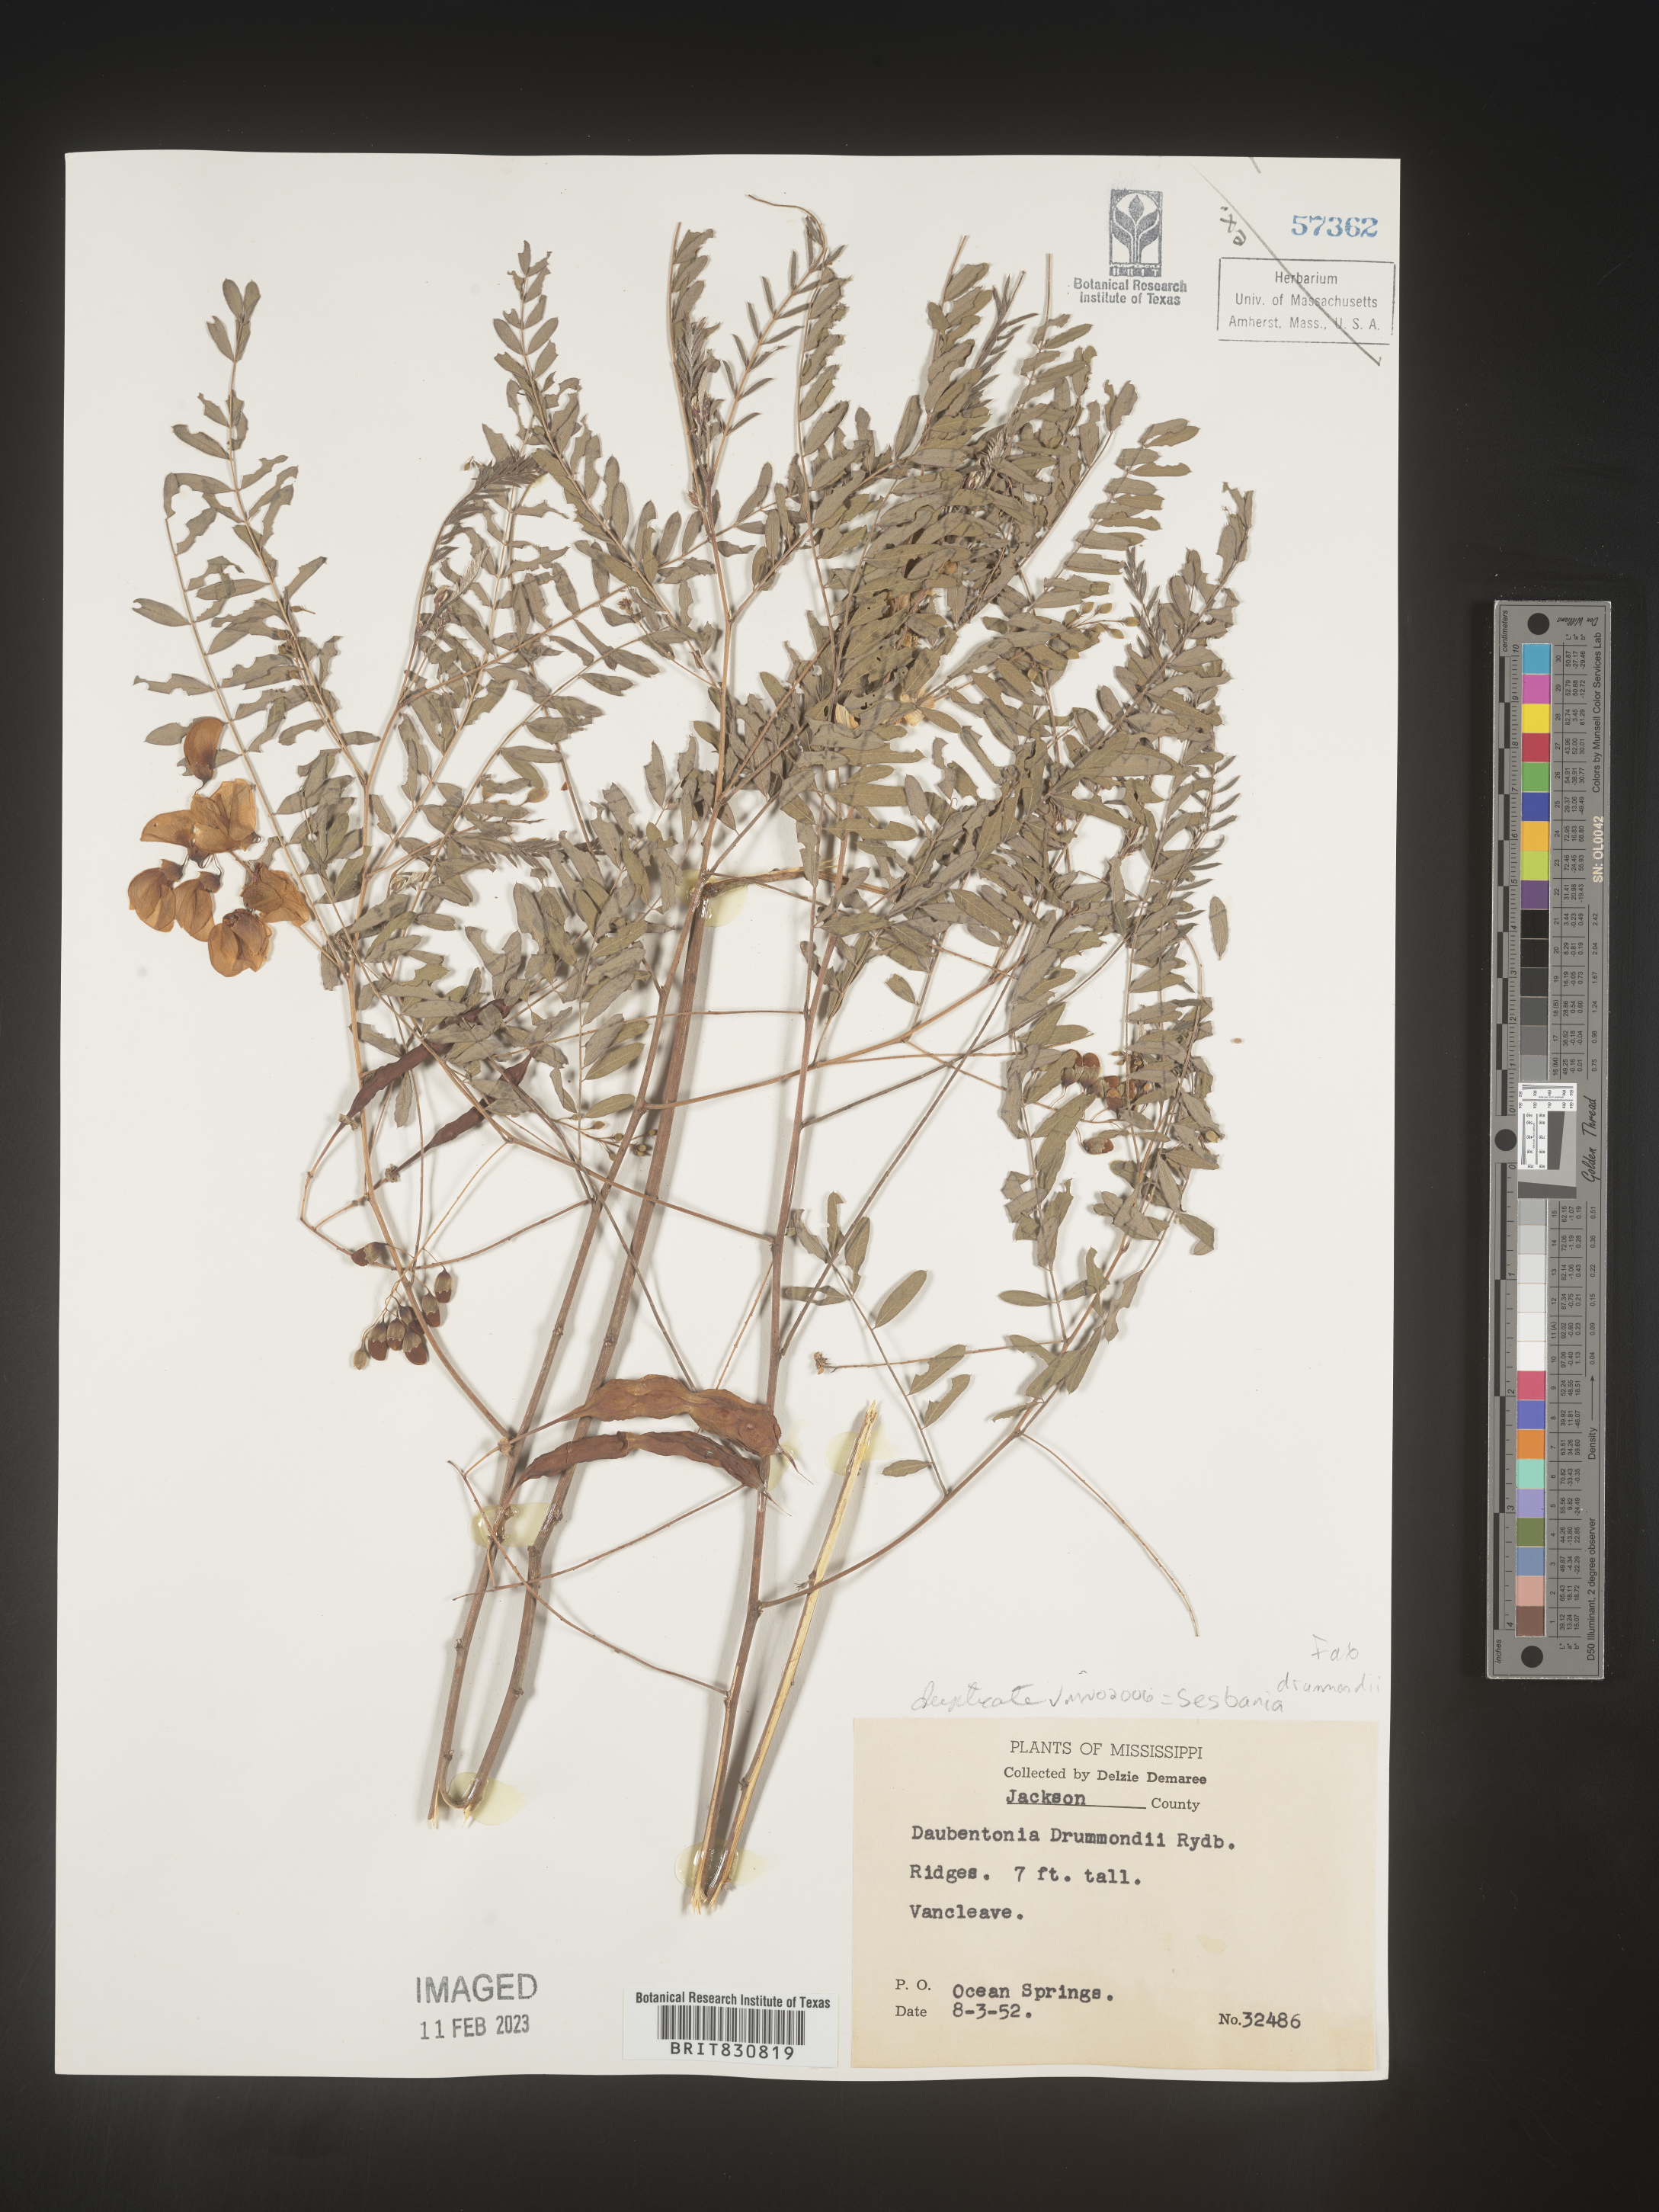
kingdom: Plantae
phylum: Tracheophyta
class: Magnoliopsida
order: Fabales
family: Fabaceae
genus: Sesbania
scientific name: Sesbania drummondii
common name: Poison-bean
